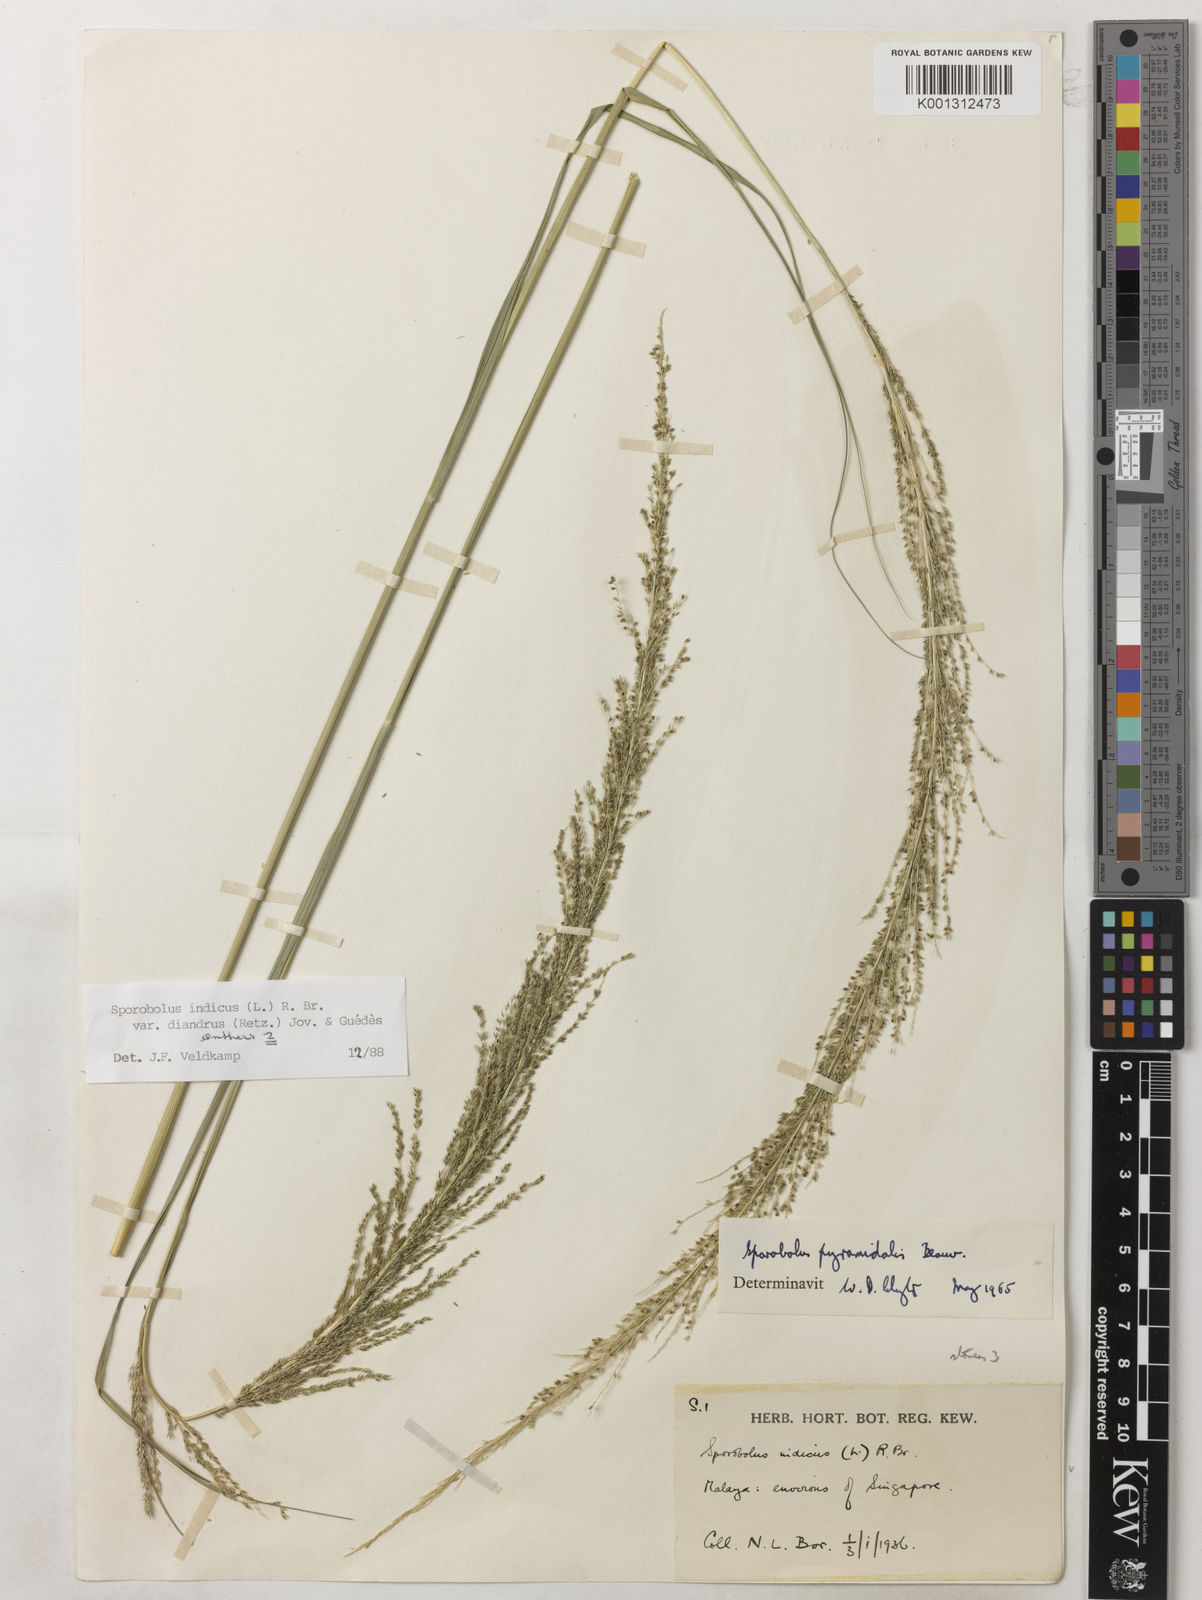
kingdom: Plantae
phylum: Tracheophyta
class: Liliopsida
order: Poales
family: Poaceae
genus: Sporobolus
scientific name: Sporobolus diandrus
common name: Tussock dropseed
